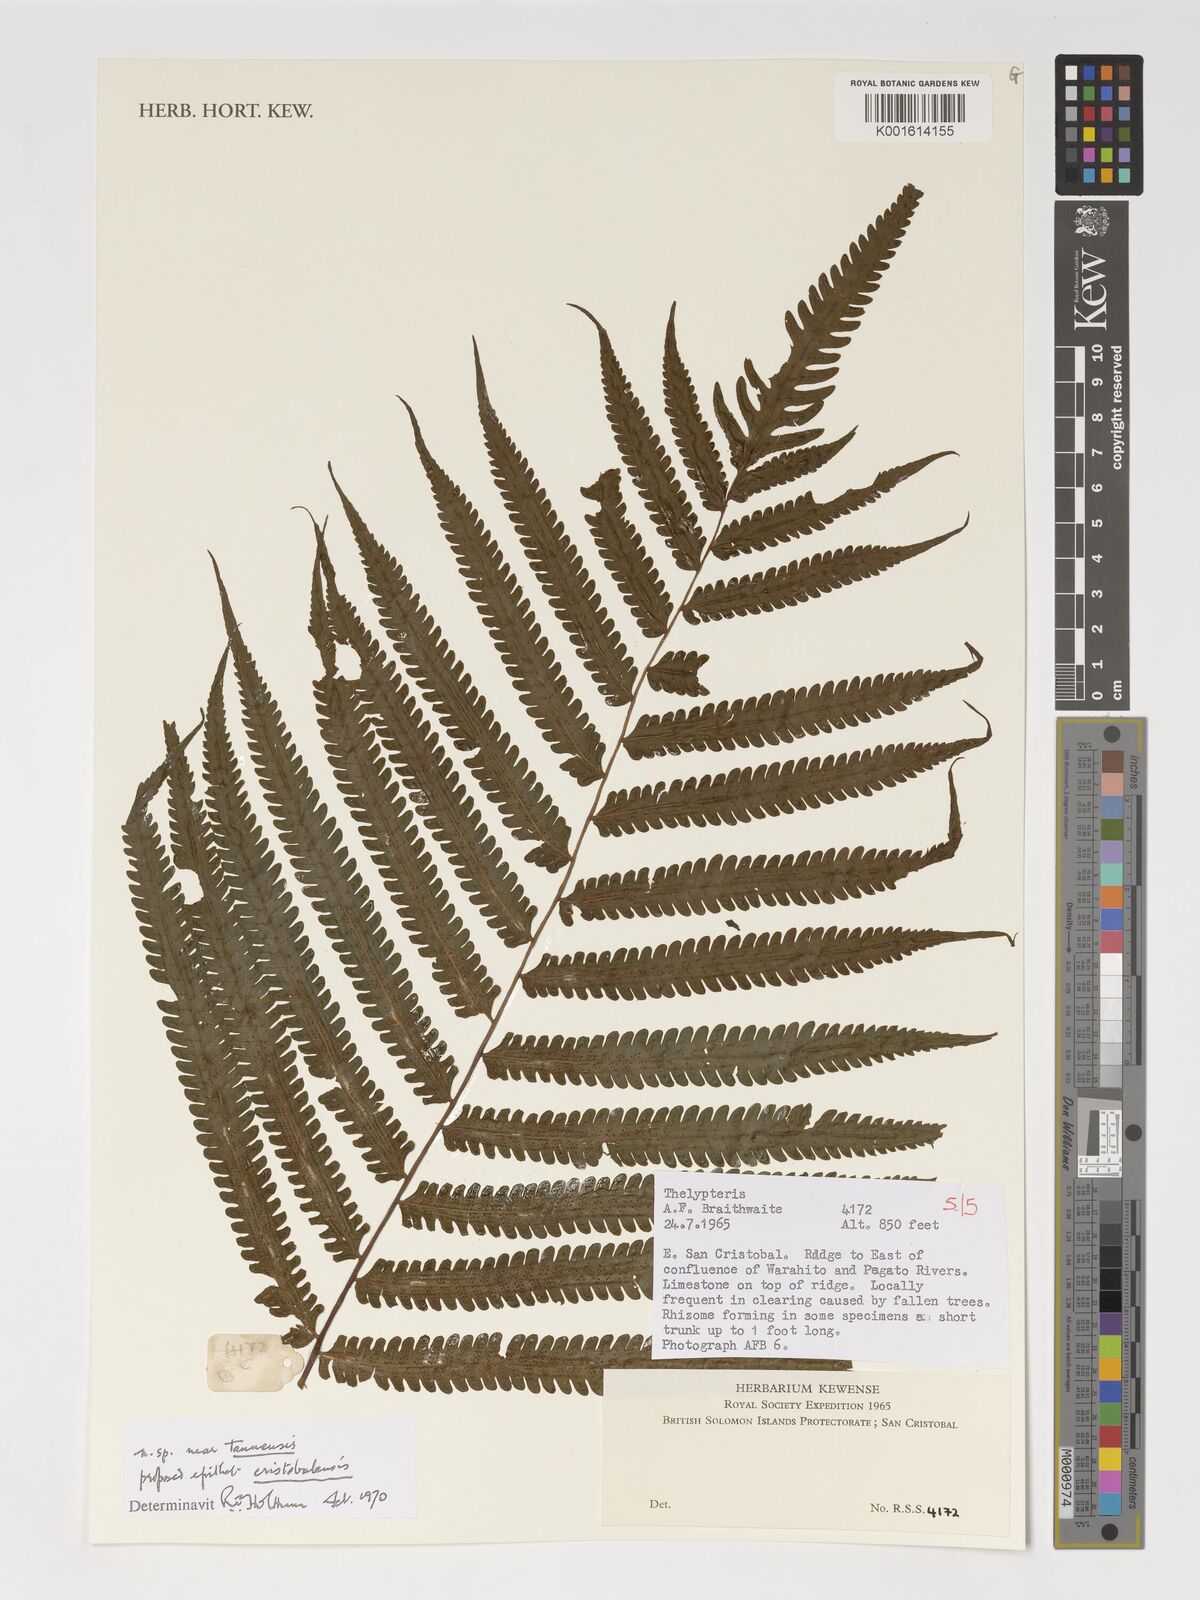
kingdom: Plantae
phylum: Tracheophyta
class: Polypodiopsida
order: Polypodiales
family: Thelypteridaceae
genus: Thelypteris
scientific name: Thelypteris
